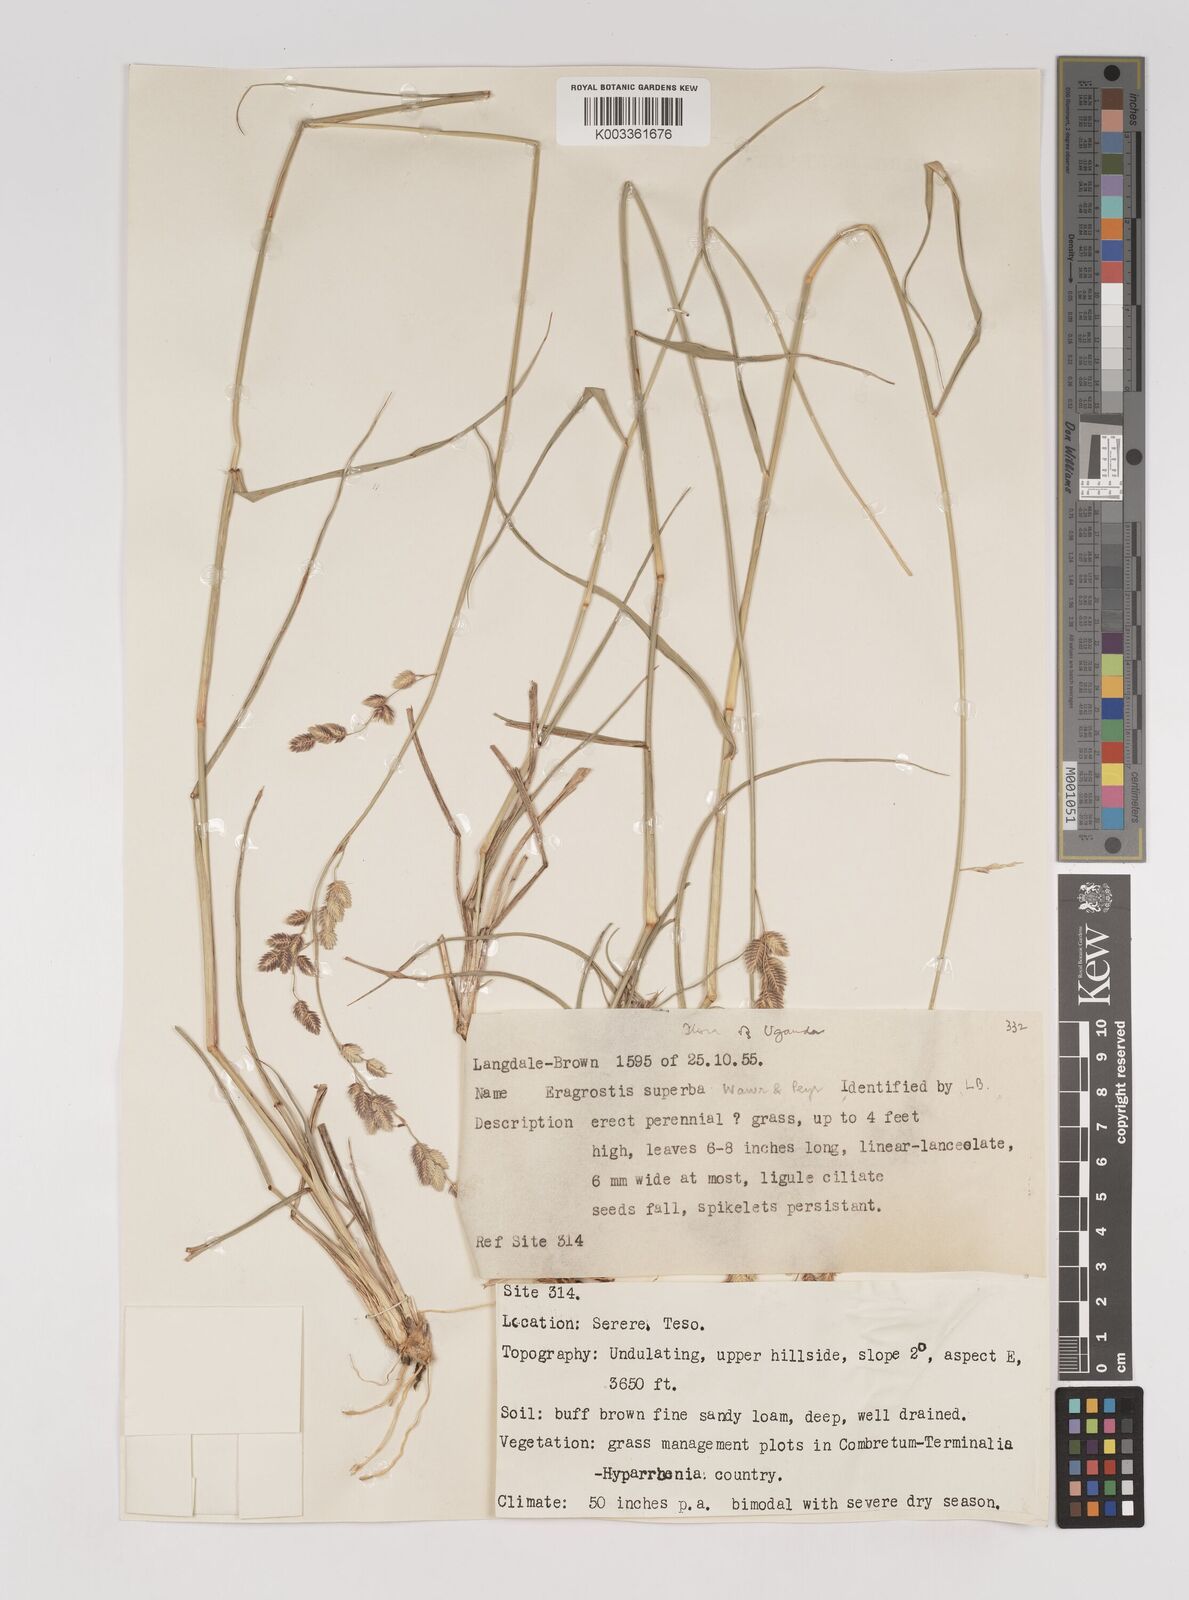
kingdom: Plantae
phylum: Tracheophyta
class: Liliopsida
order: Poales
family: Poaceae
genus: Eragrostis
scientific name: Eragrostis superba
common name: Wilman lovegrass
